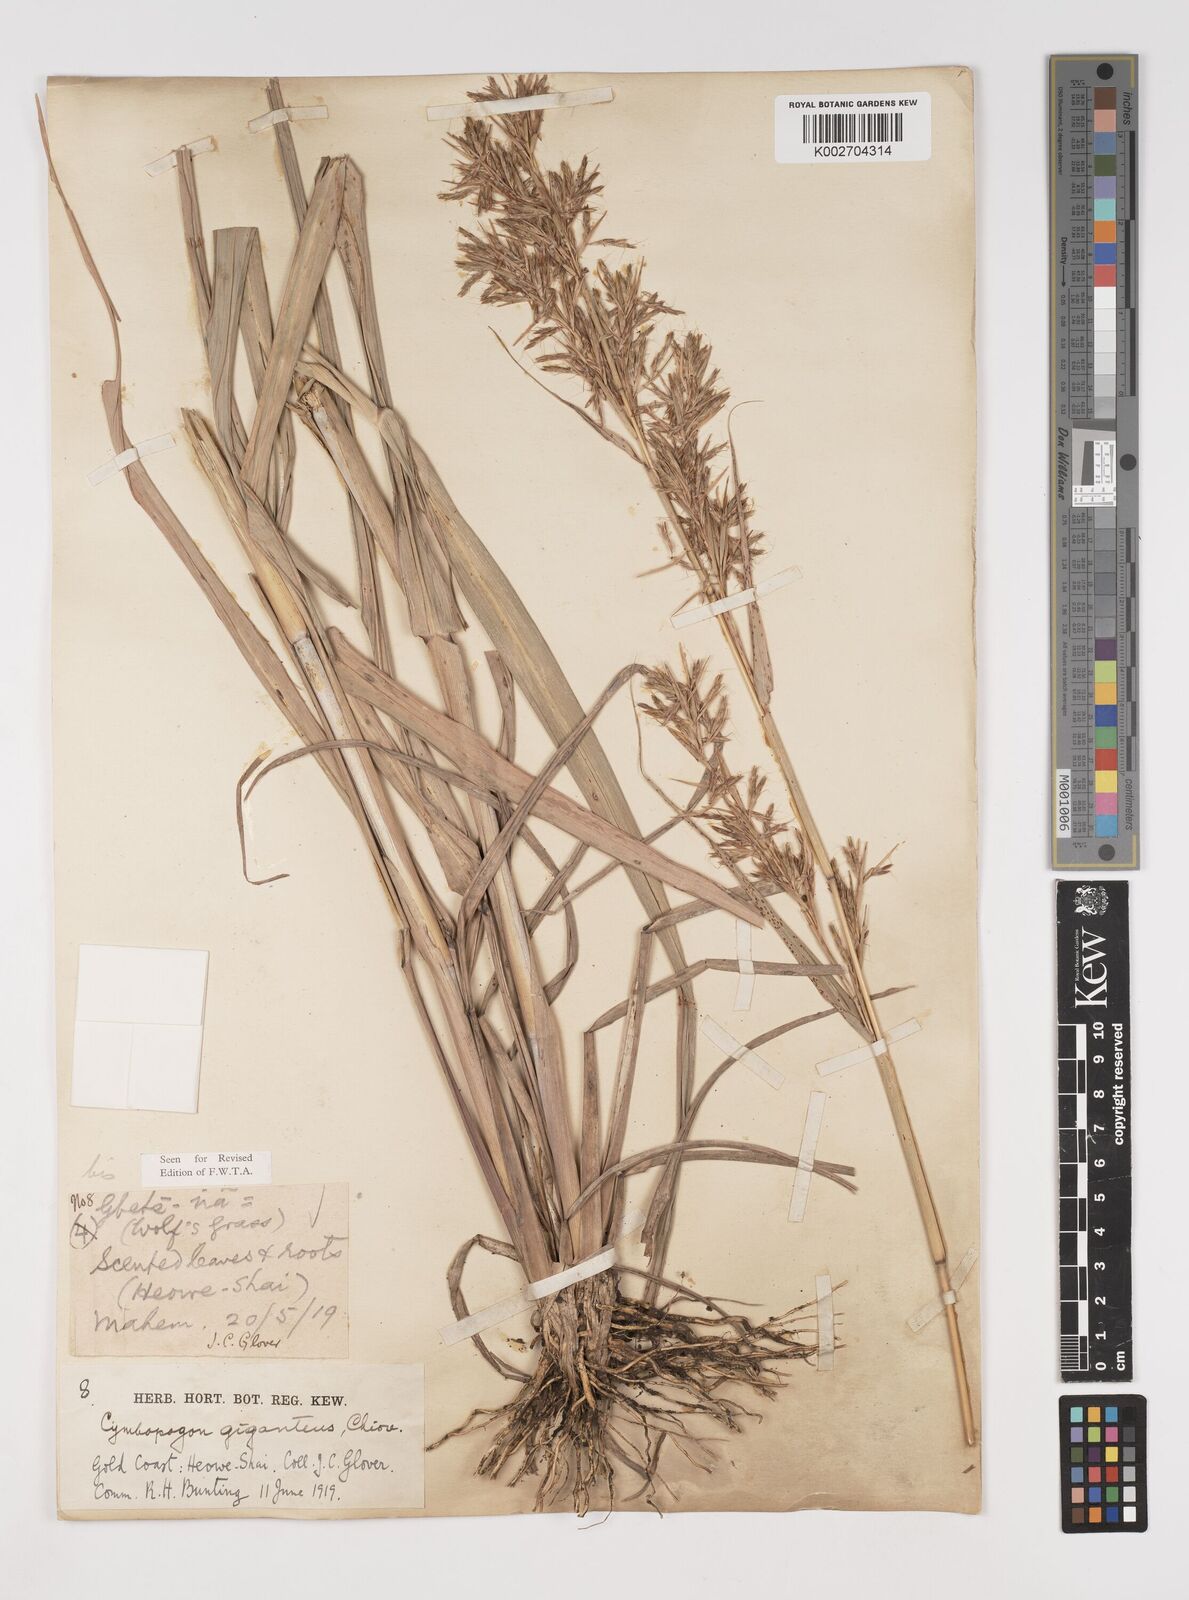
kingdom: Plantae
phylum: Tracheophyta
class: Liliopsida
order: Poales
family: Poaceae
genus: Cymbopogon
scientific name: Cymbopogon giganteus
